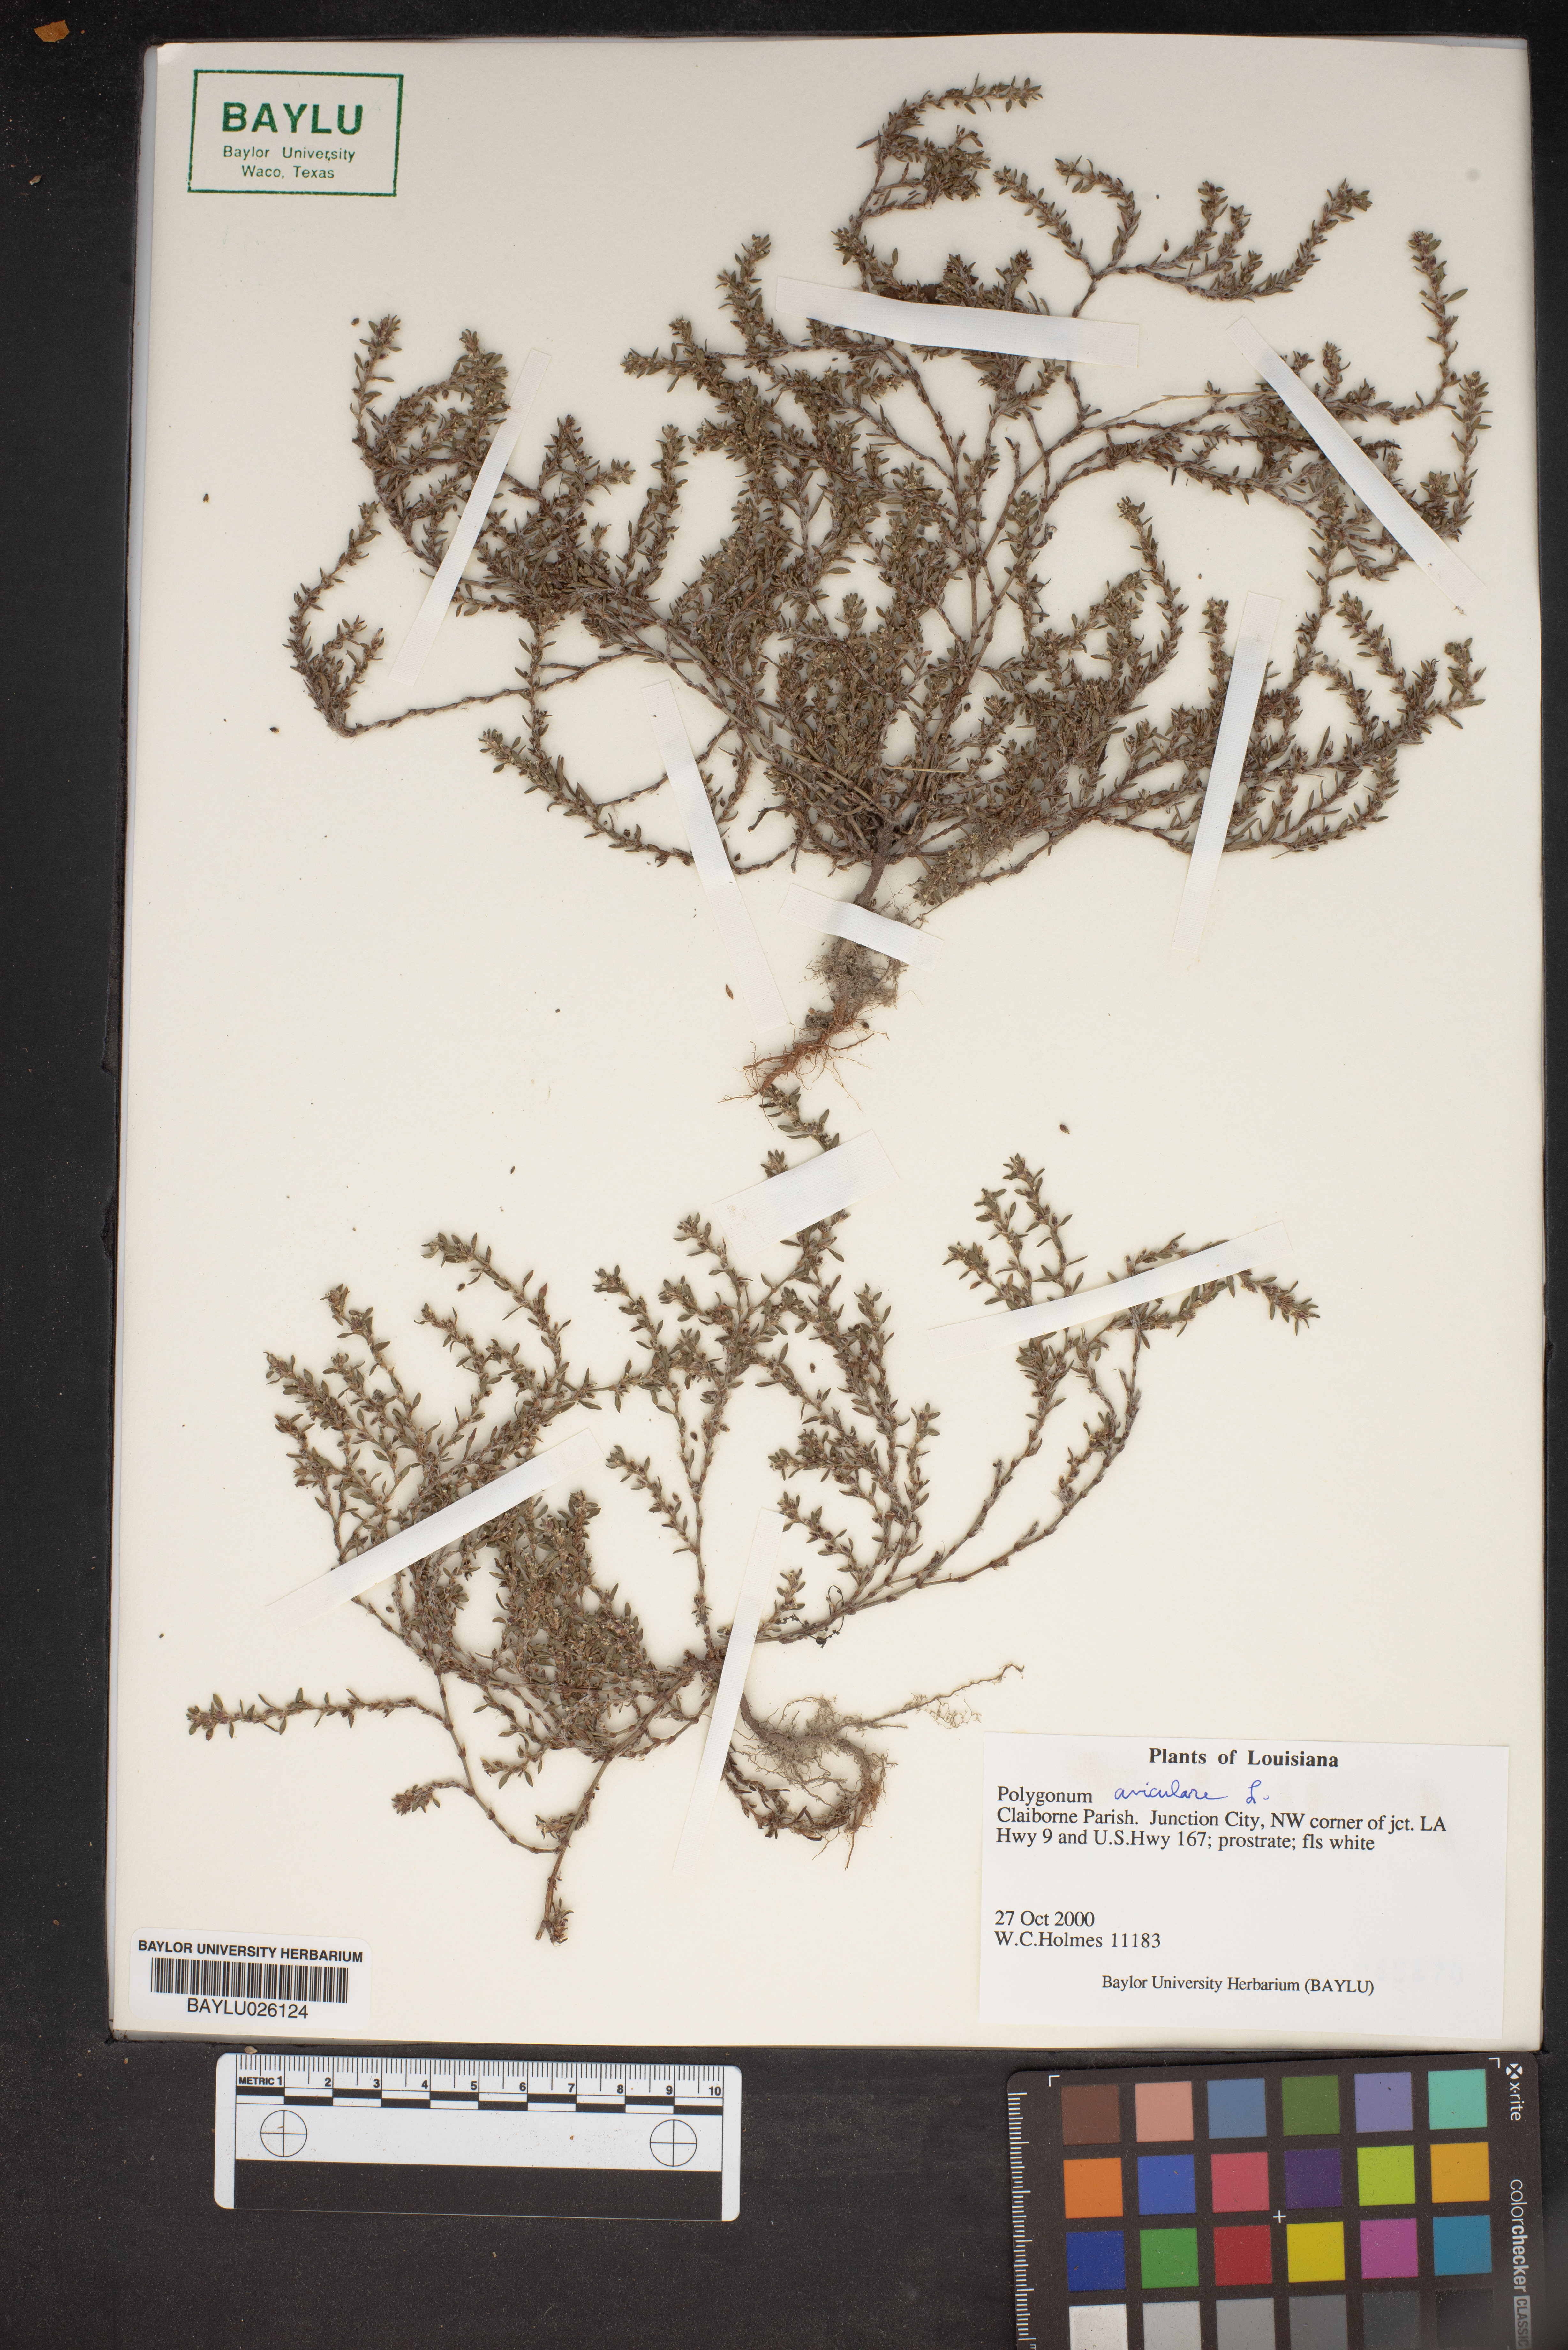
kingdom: Plantae
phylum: Tracheophyta
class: Magnoliopsida
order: Caryophyllales
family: Polygonaceae
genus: Polygonum
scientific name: Polygonum aviculare
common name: Prostrate knotweed
